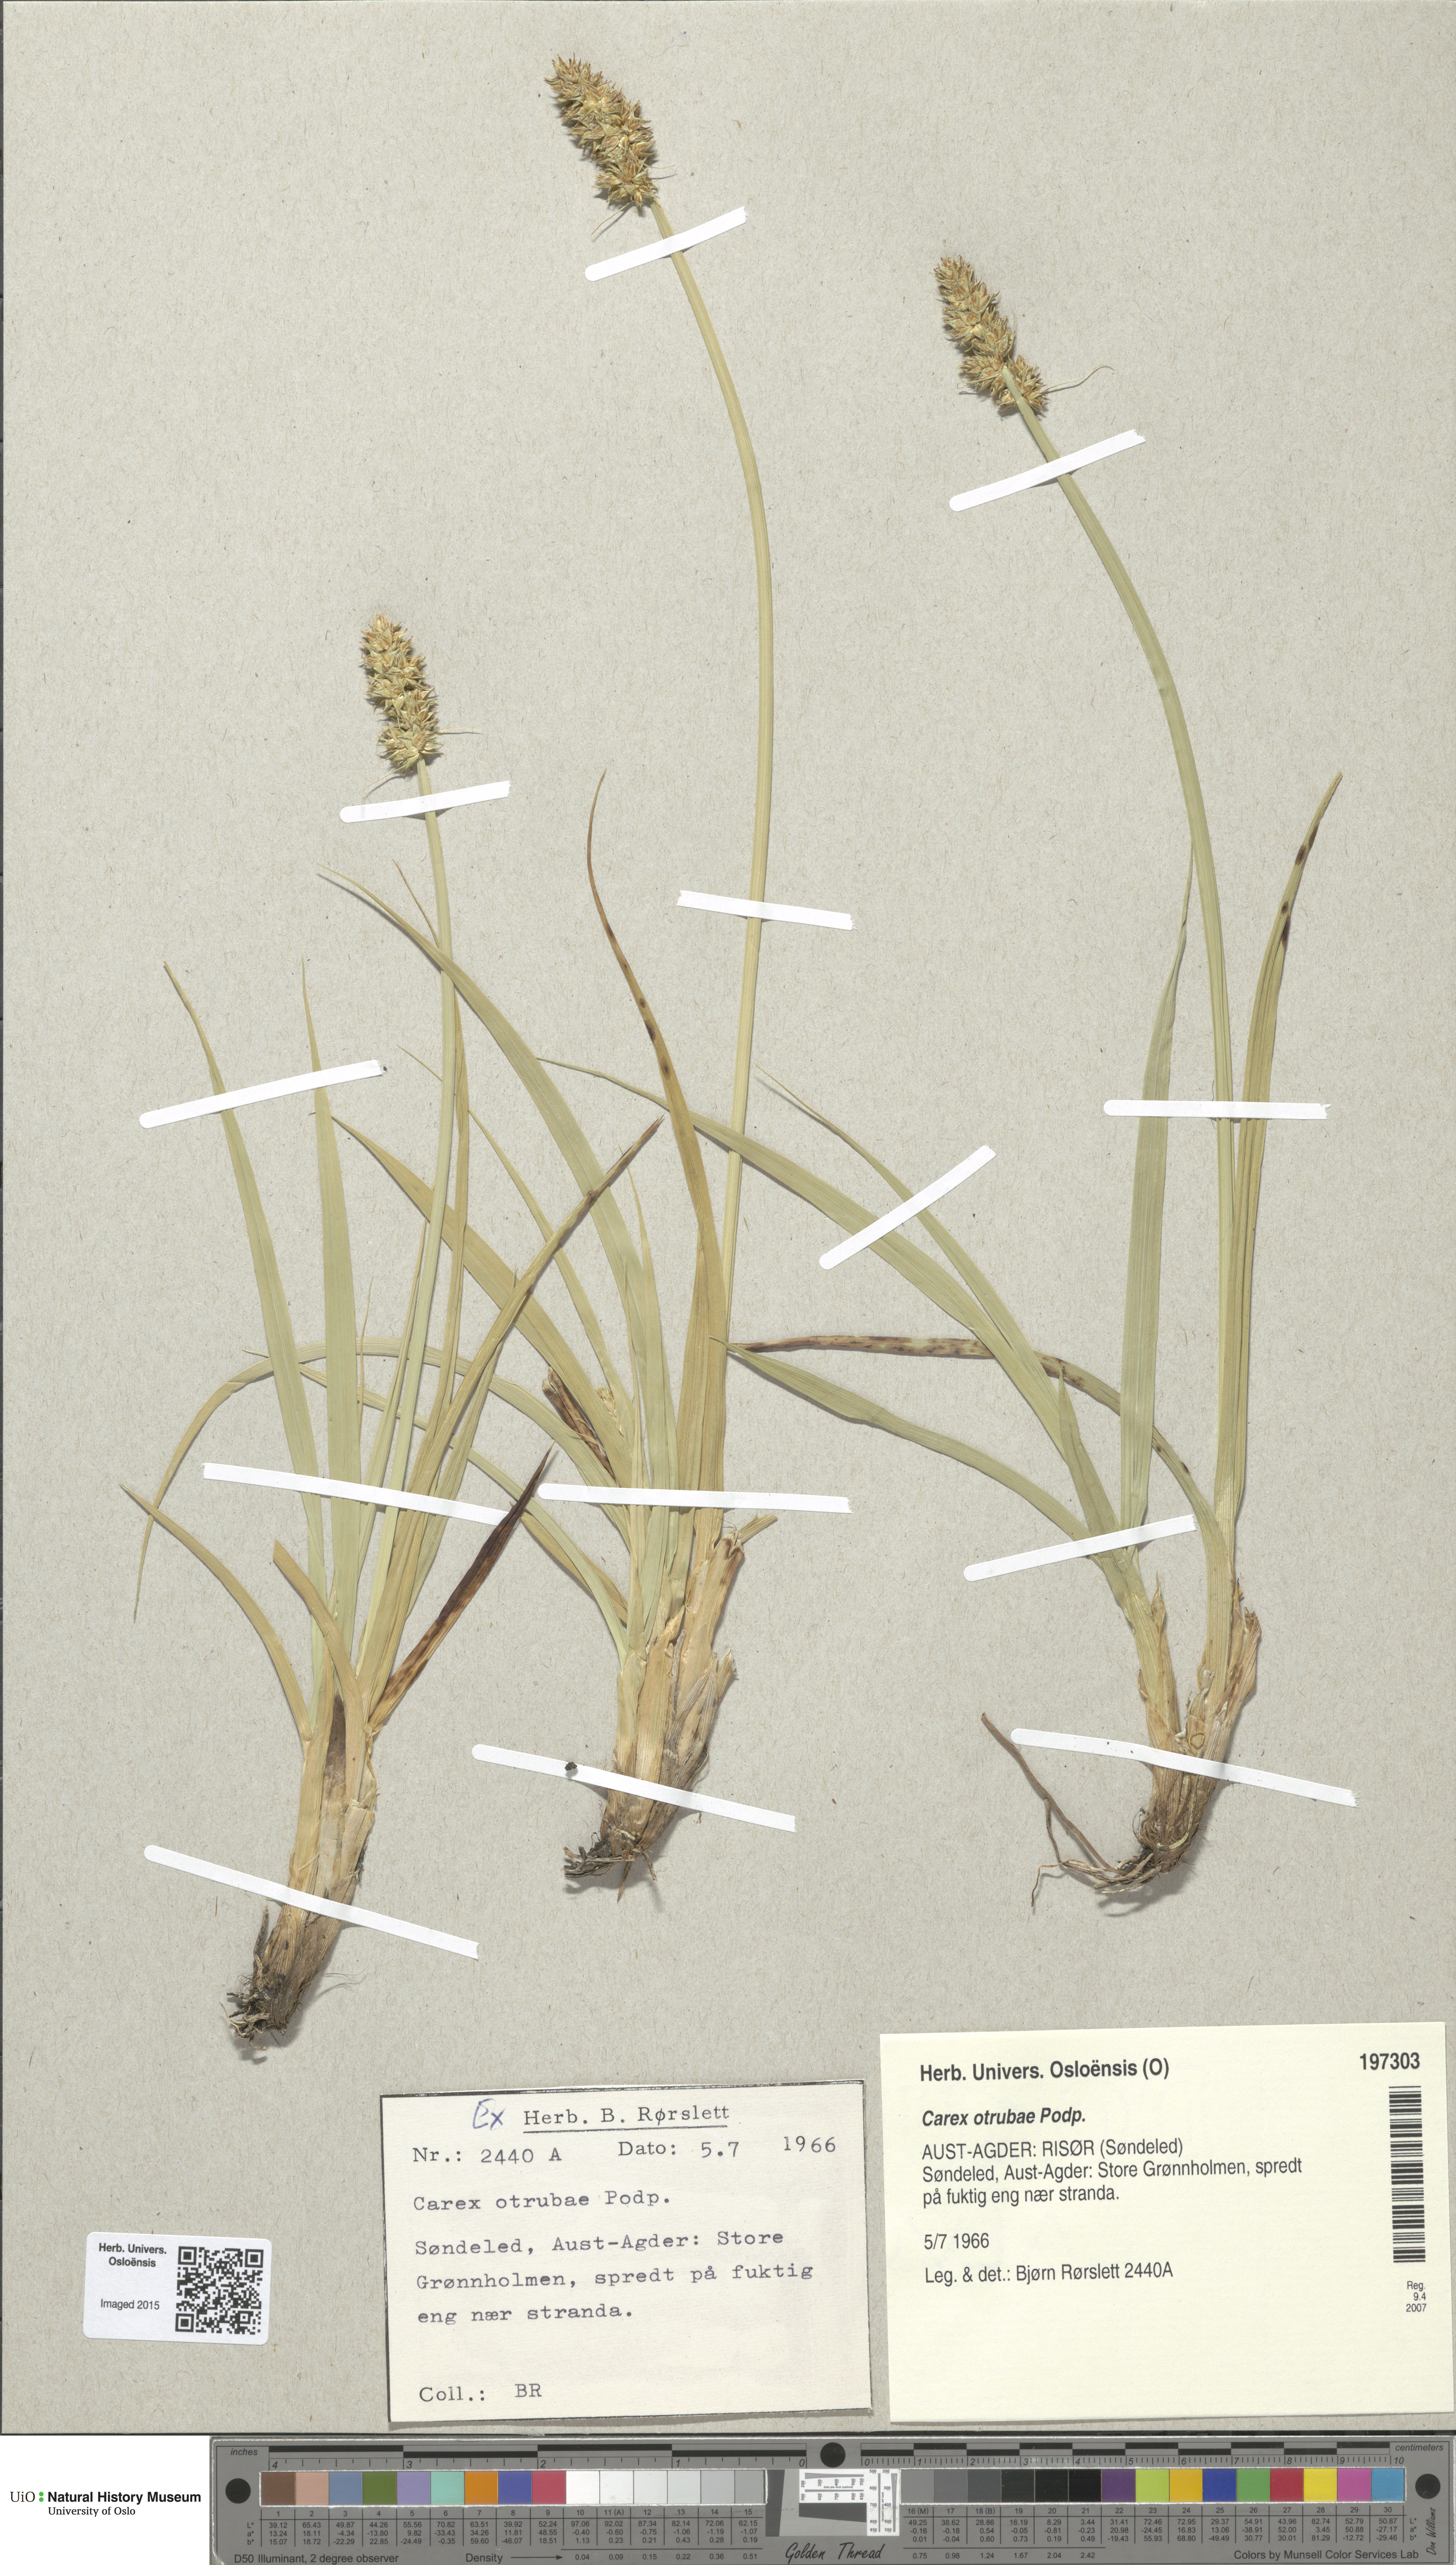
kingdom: Plantae
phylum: Tracheophyta
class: Liliopsida
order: Poales
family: Cyperaceae
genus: Carex
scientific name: Carex otrubae
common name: False fox-sedge
